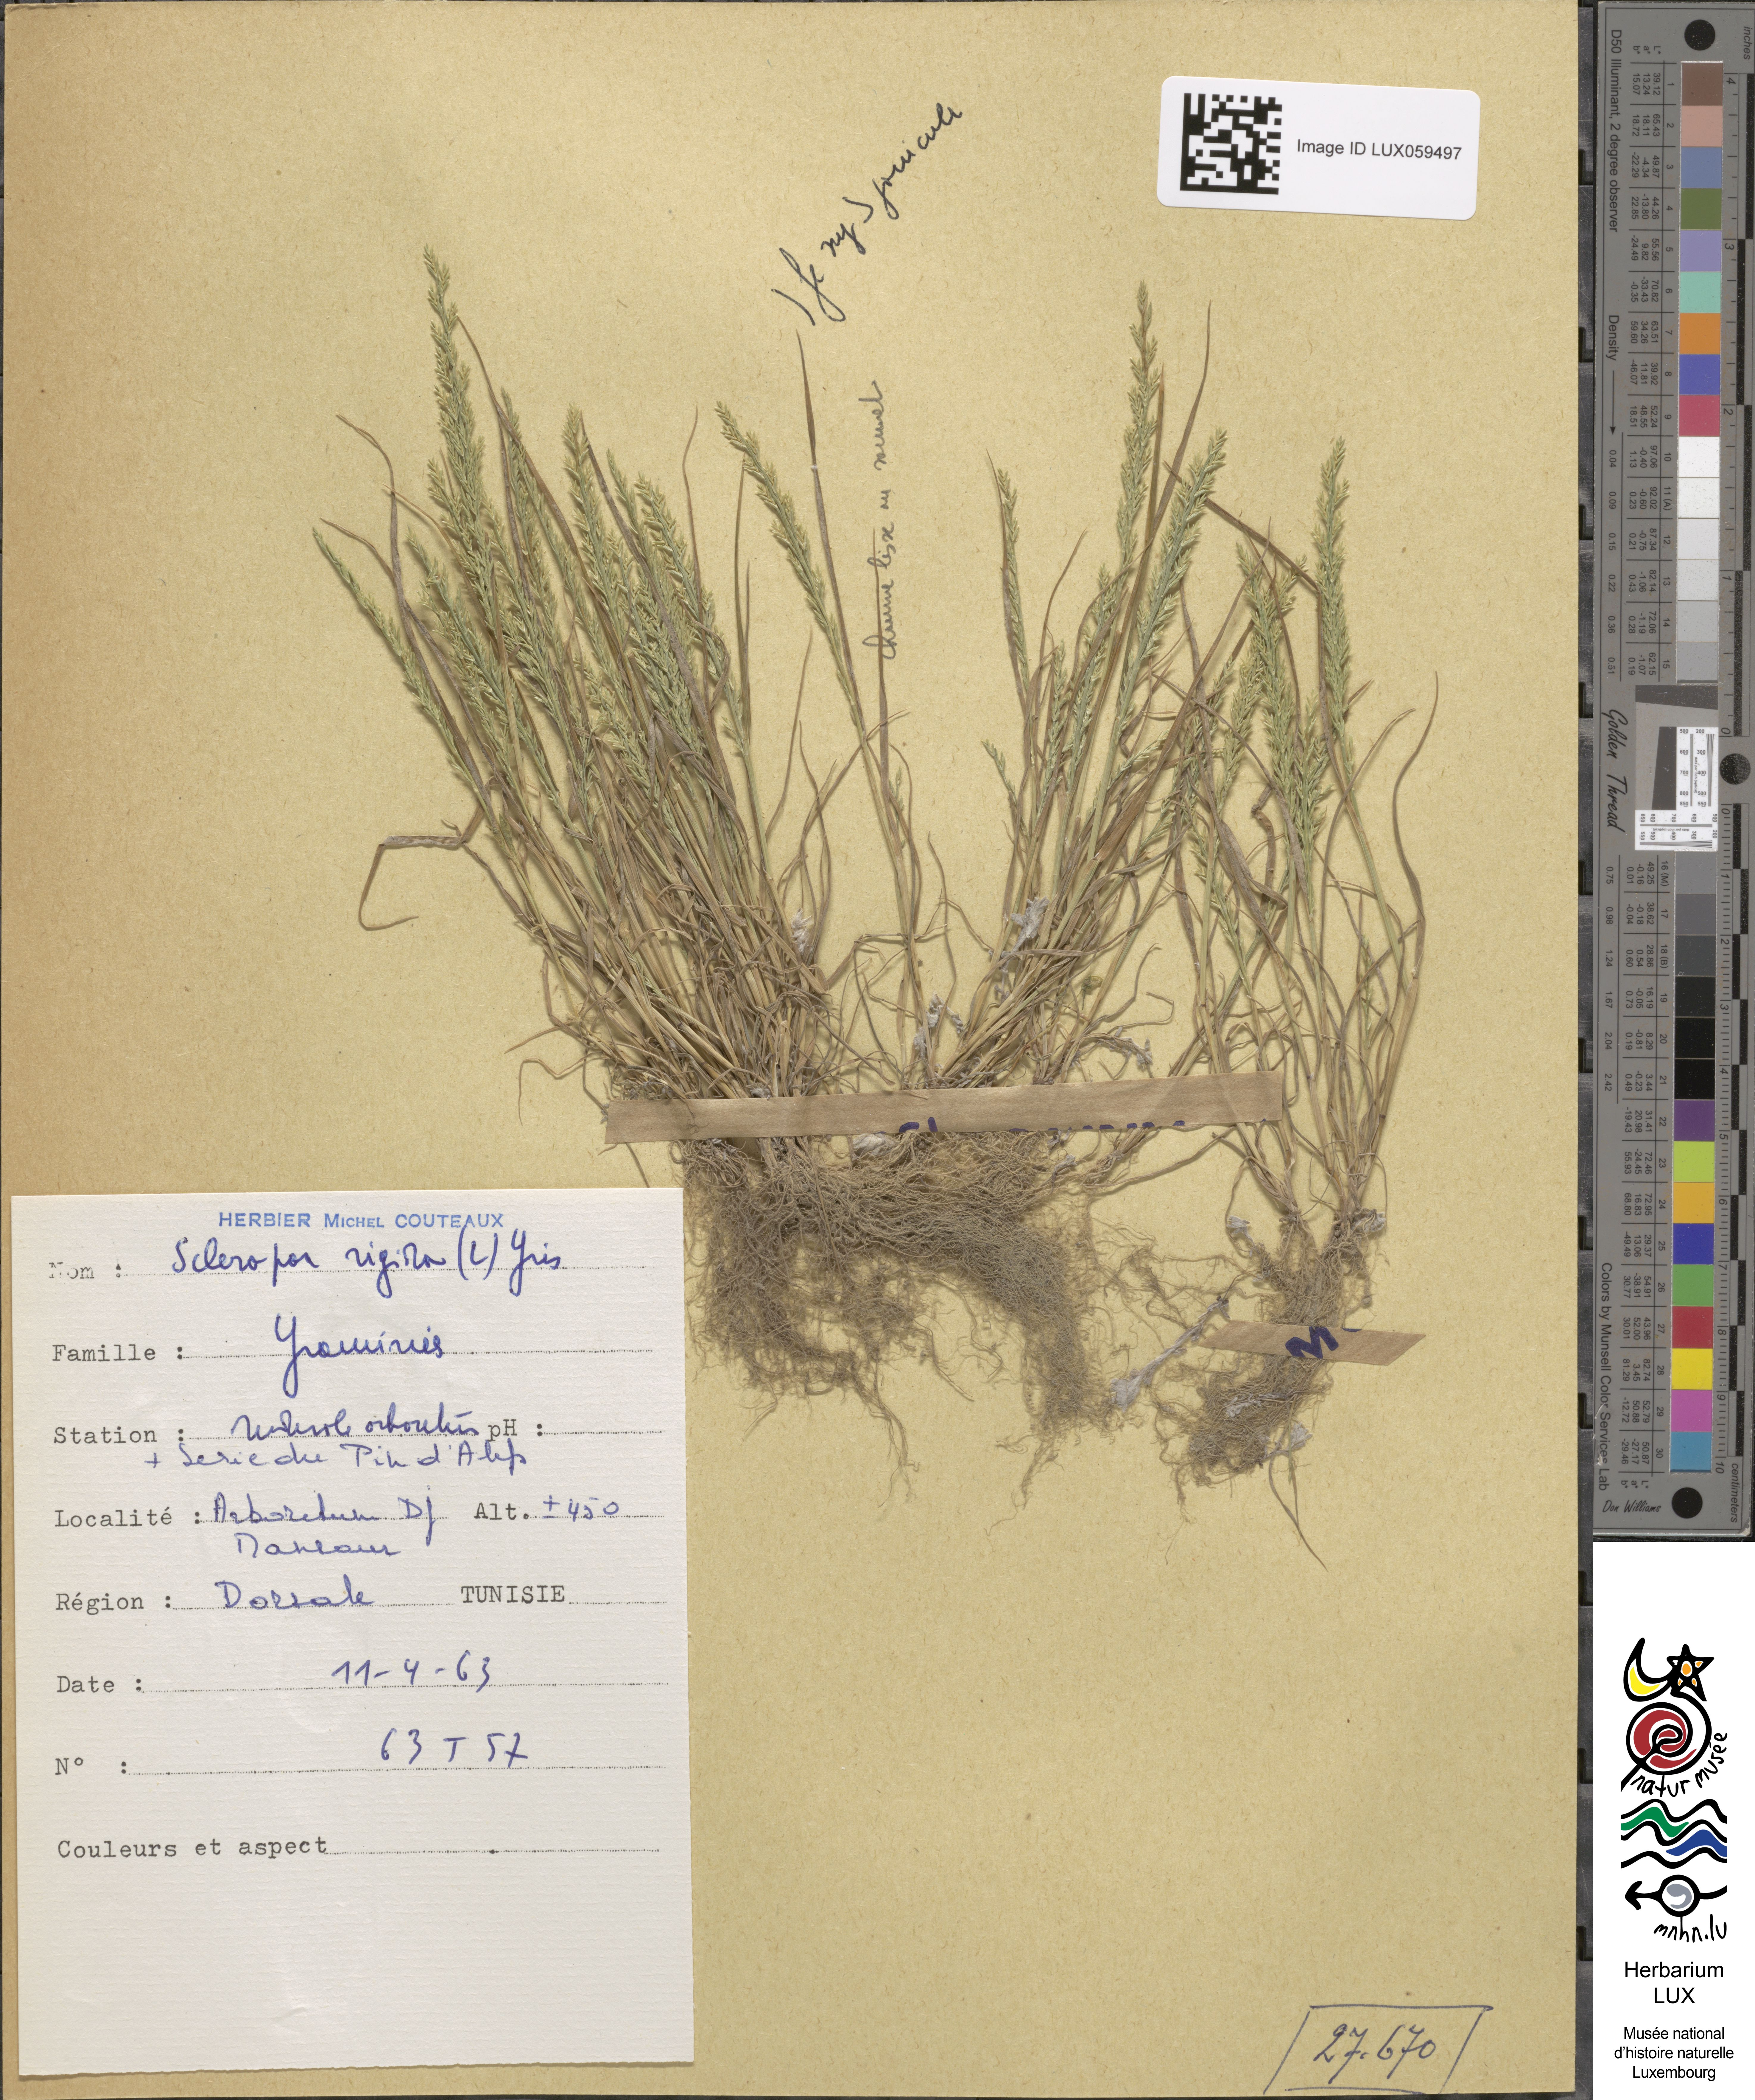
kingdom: Plantae
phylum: Tracheophyta
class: Liliopsida
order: Poales
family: Poaceae
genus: Catapodium
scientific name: Catapodium rigidum
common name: Fern-grass
